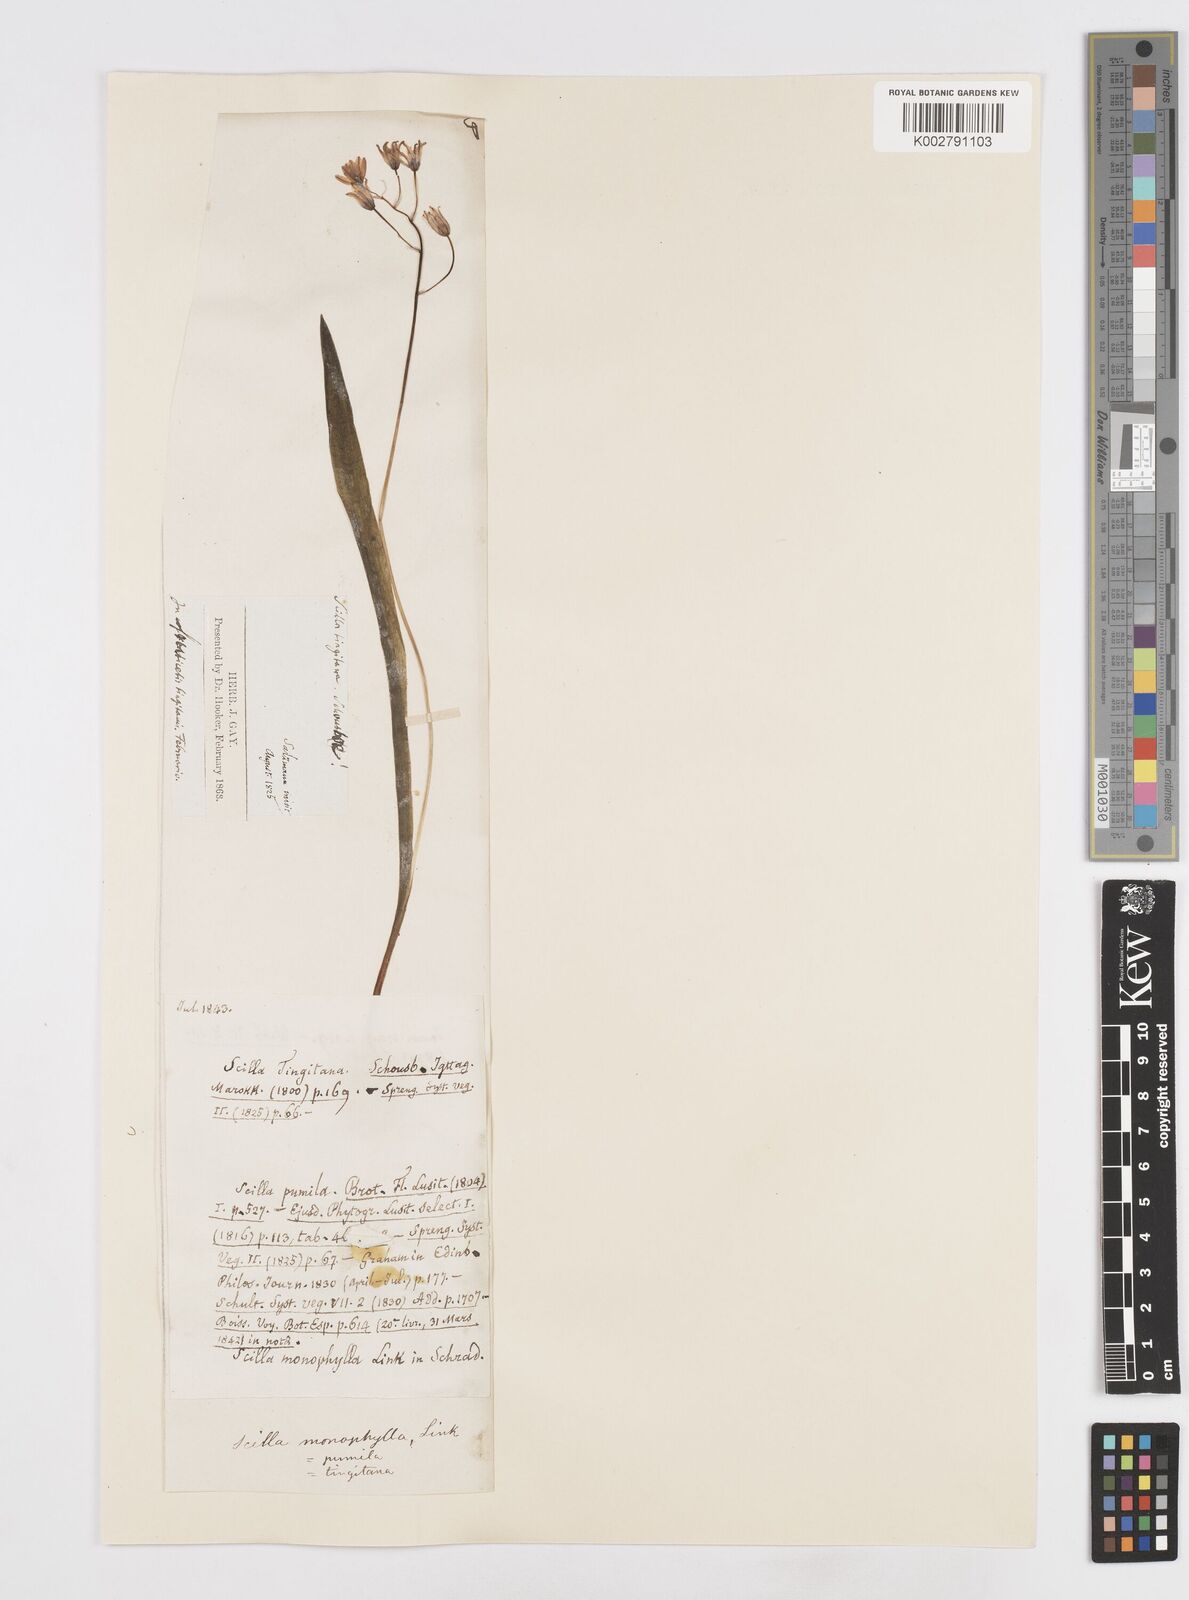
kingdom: Plantae
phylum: Tracheophyta
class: Liliopsida
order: Asparagales
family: Asparagaceae
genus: Scilla
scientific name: Scilla monophyllos
